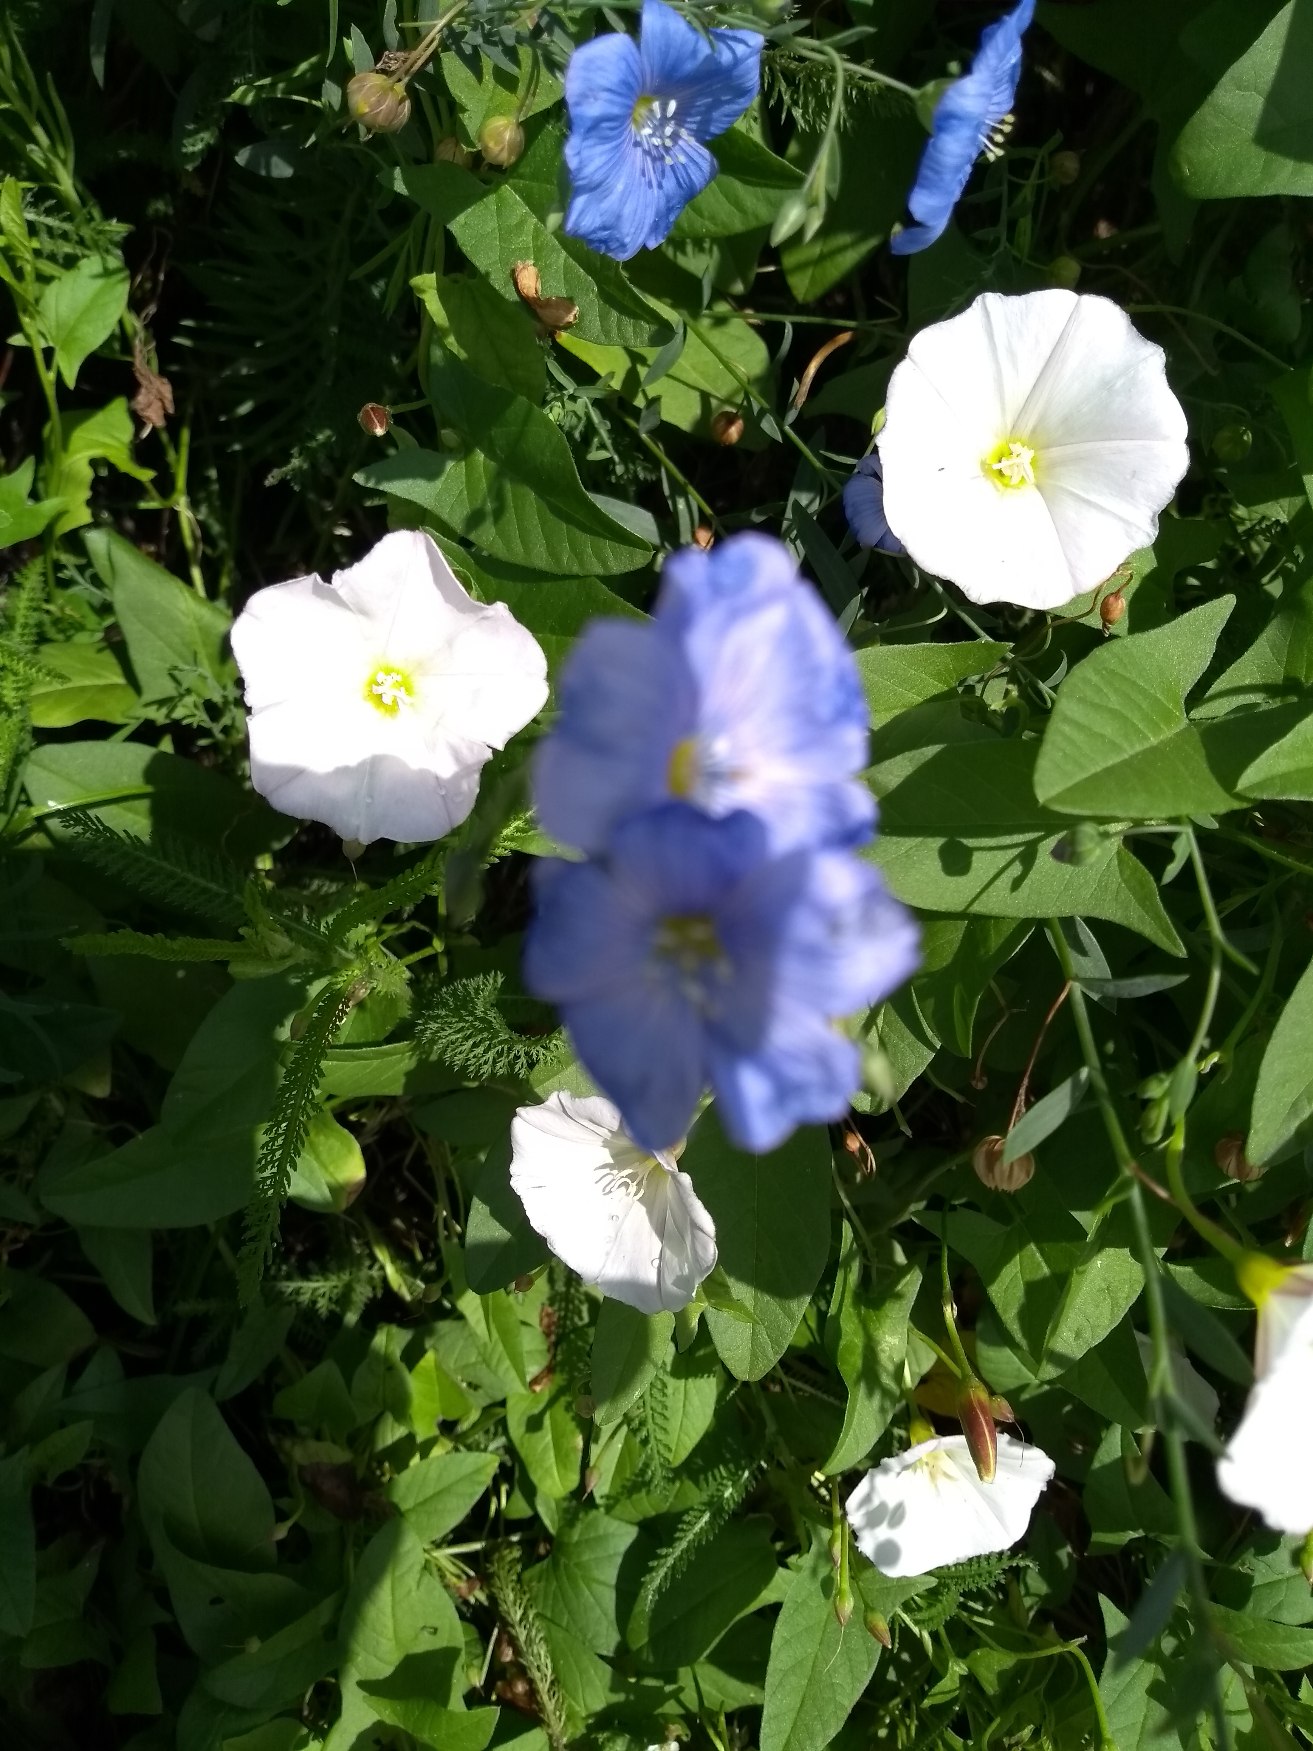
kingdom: Plantae
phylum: Tracheophyta
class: Magnoliopsida
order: Malpighiales
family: Linaceae
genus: Linum
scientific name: Linum austriacum
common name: Østrigsk hør
